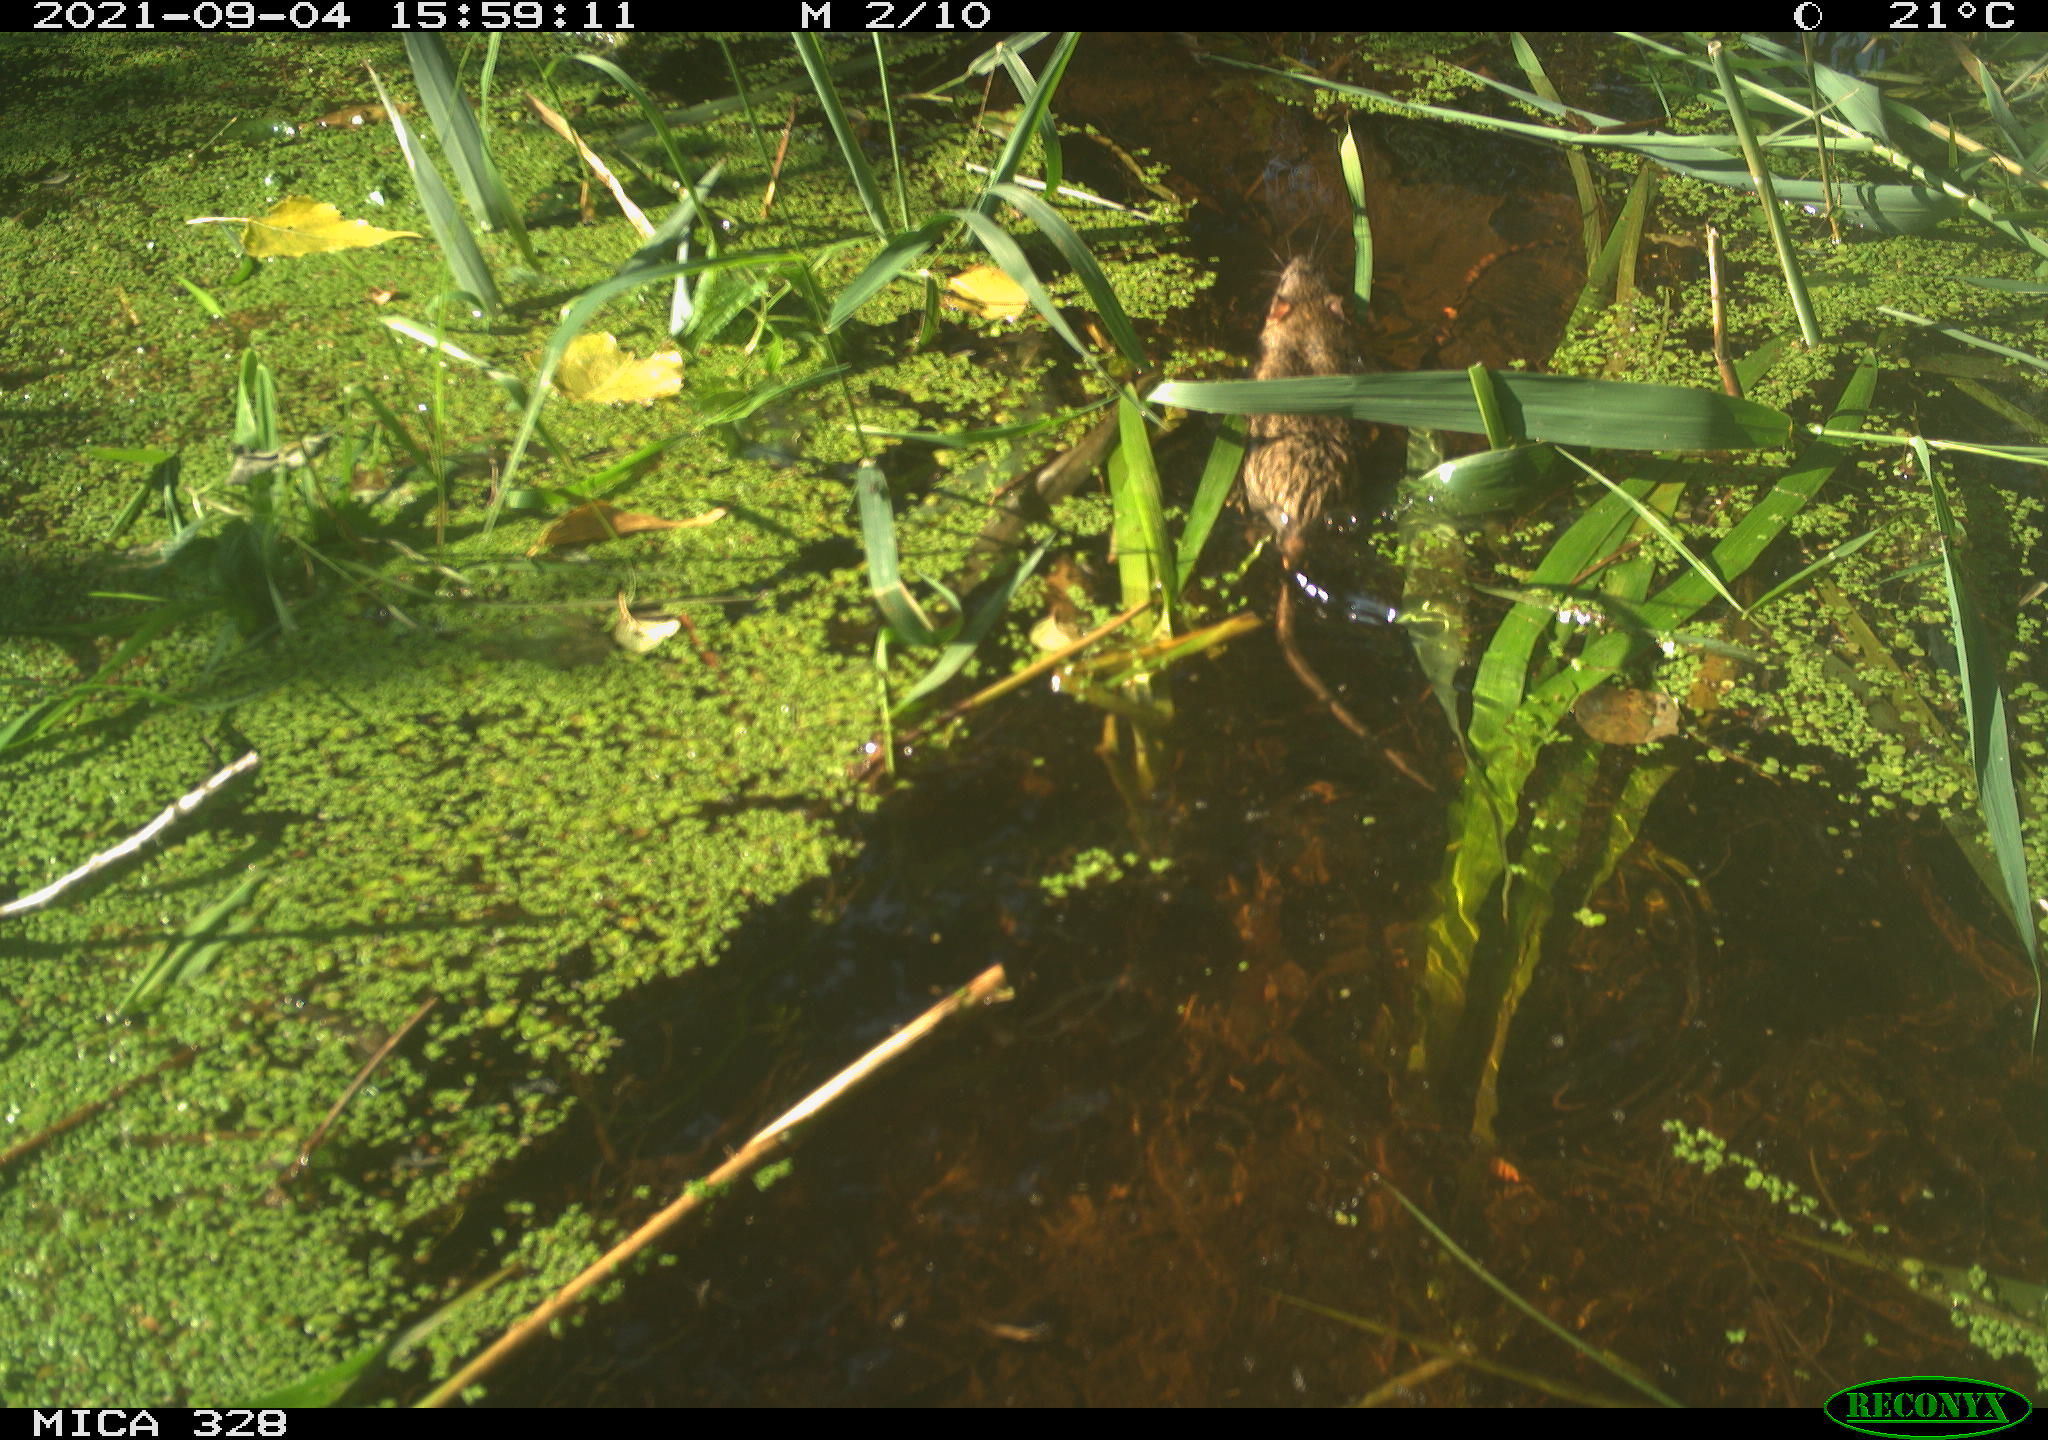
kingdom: Animalia
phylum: Chordata
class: Mammalia
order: Rodentia
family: Muridae
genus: Rattus
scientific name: Rattus norvegicus
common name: Brown rat
